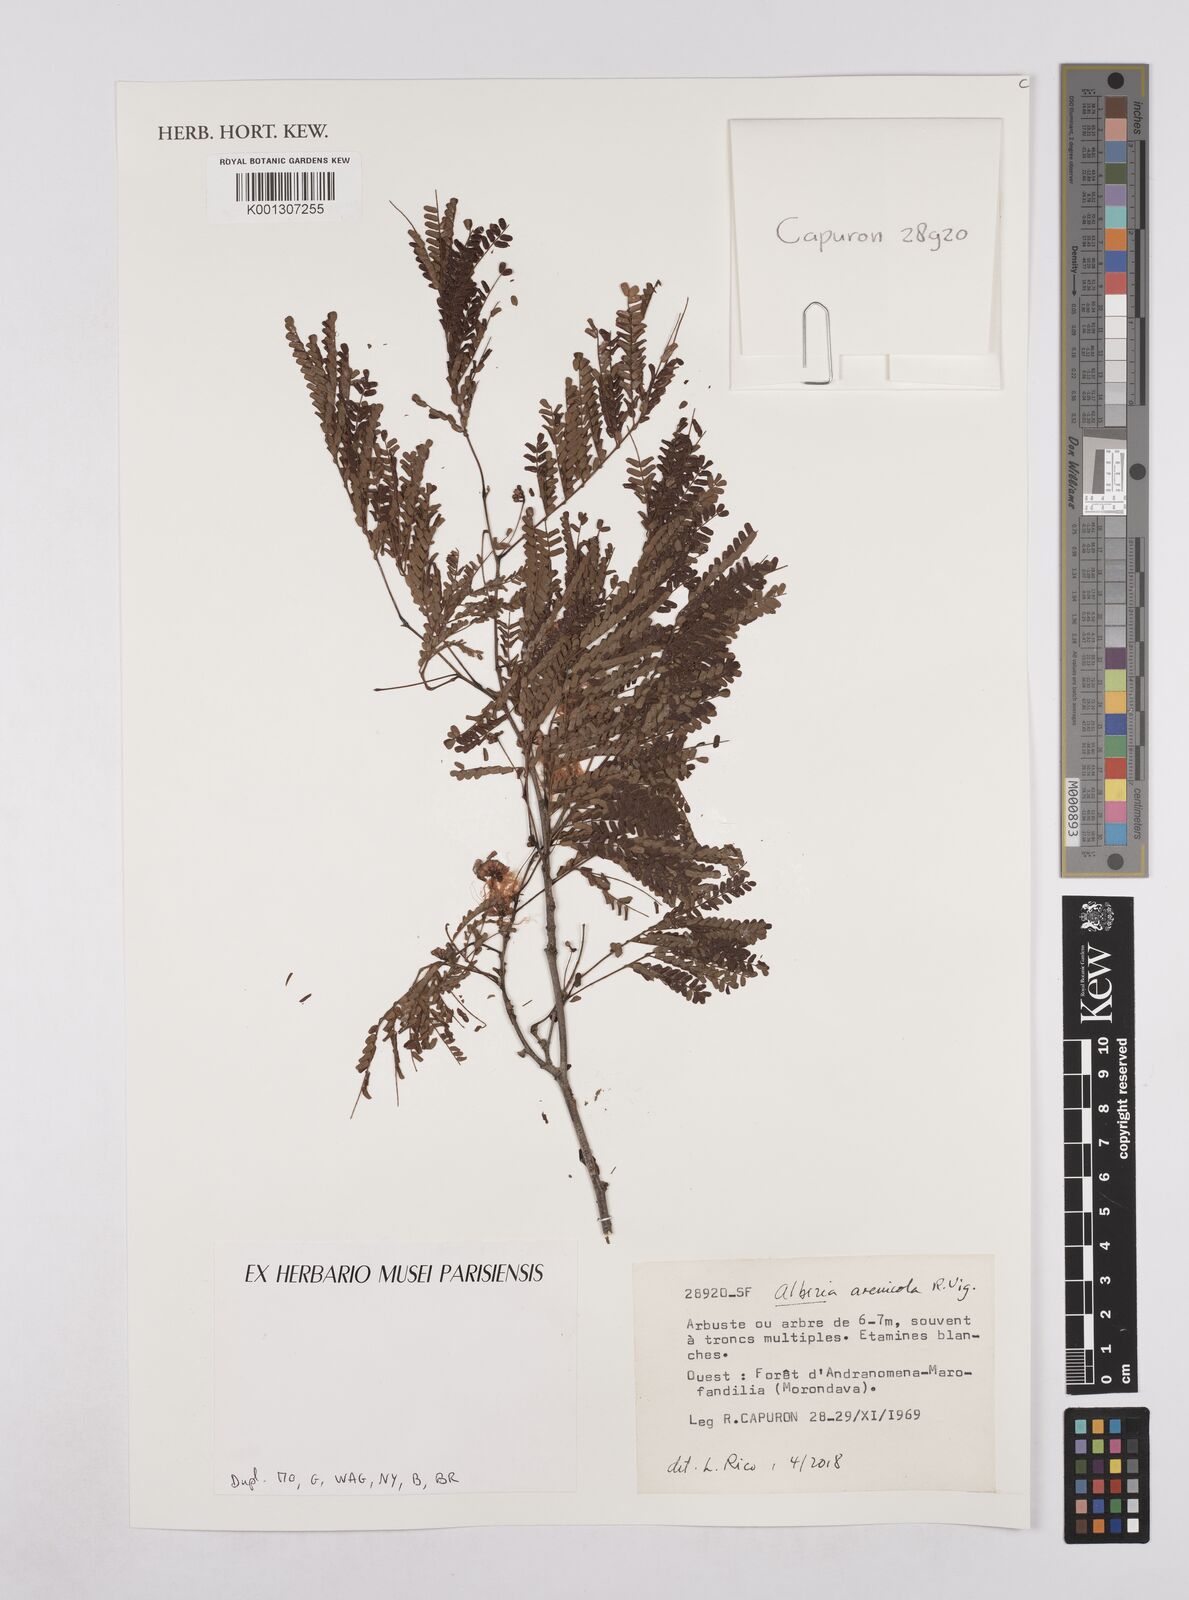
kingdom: Plantae
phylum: Tracheophyta
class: Magnoliopsida
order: Fabales
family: Fabaceae
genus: Albizia
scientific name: Albizia arenicola
